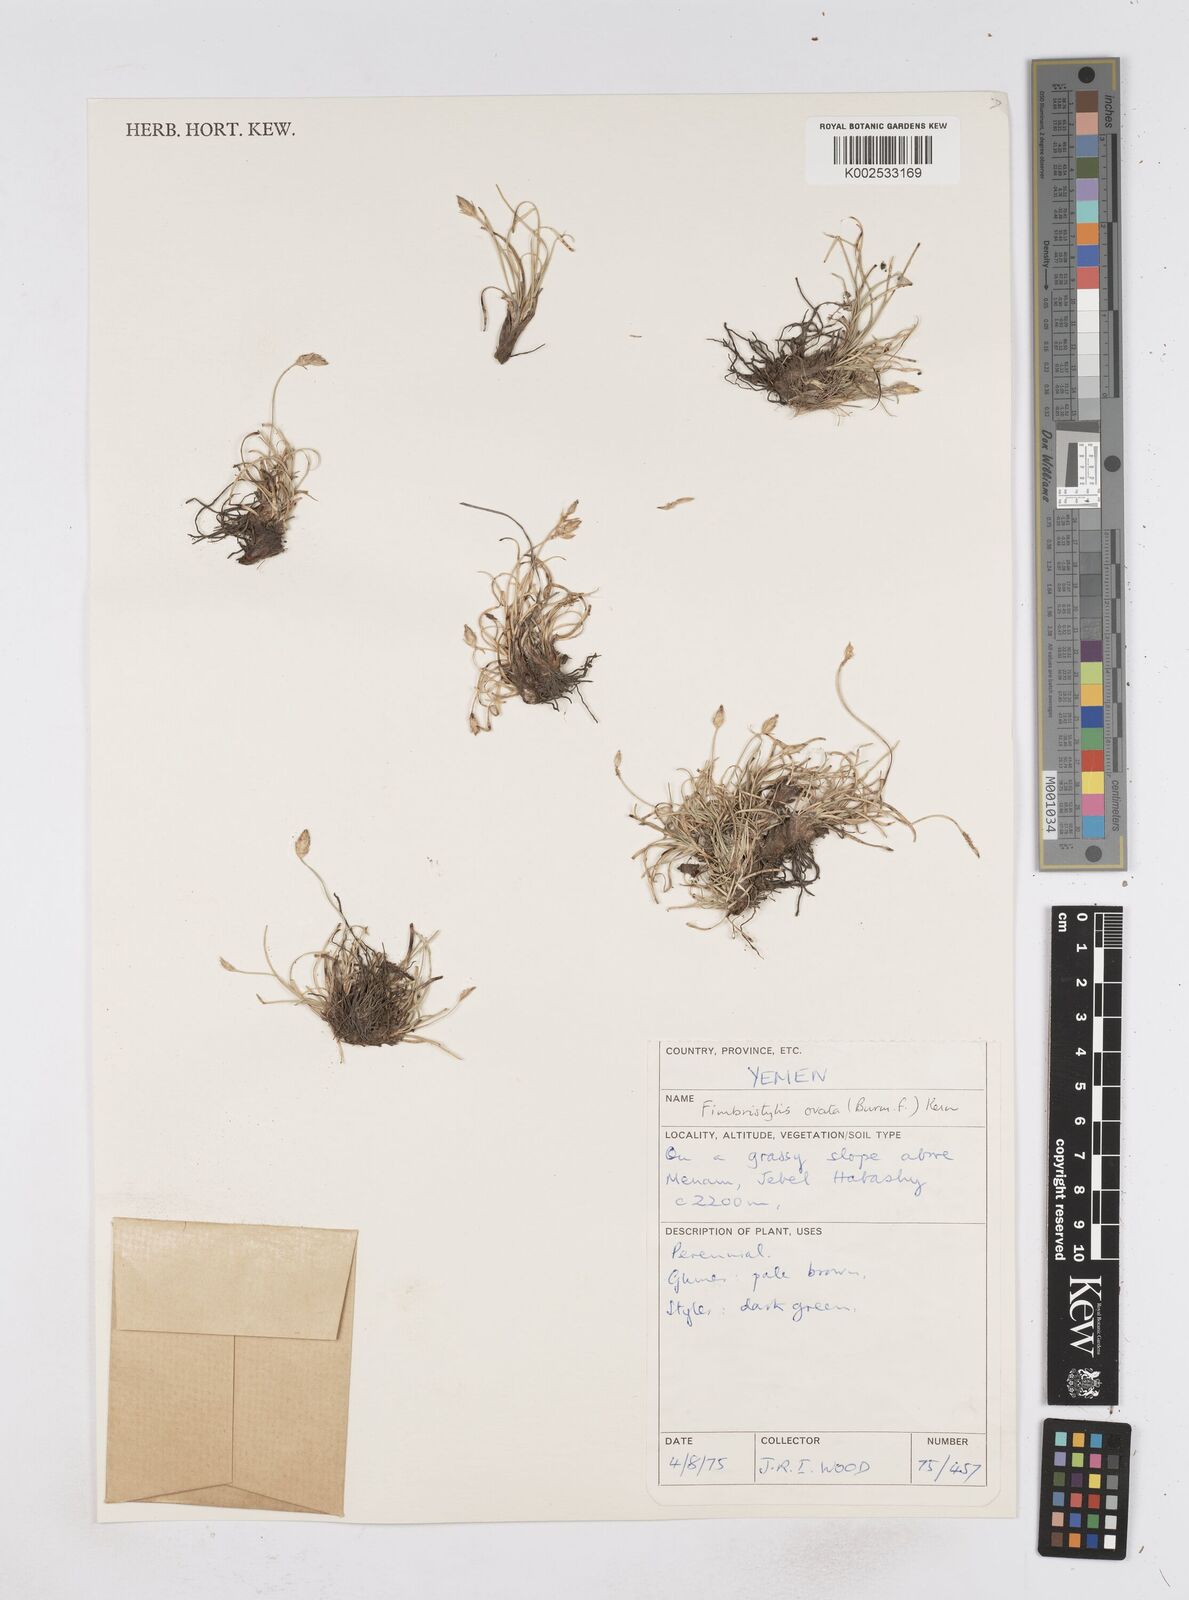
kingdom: Plantae
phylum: Tracheophyta
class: Liliopsida
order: Poales
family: Cyperaceae
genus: Abildgaardia
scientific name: Abildgaardia ovata
